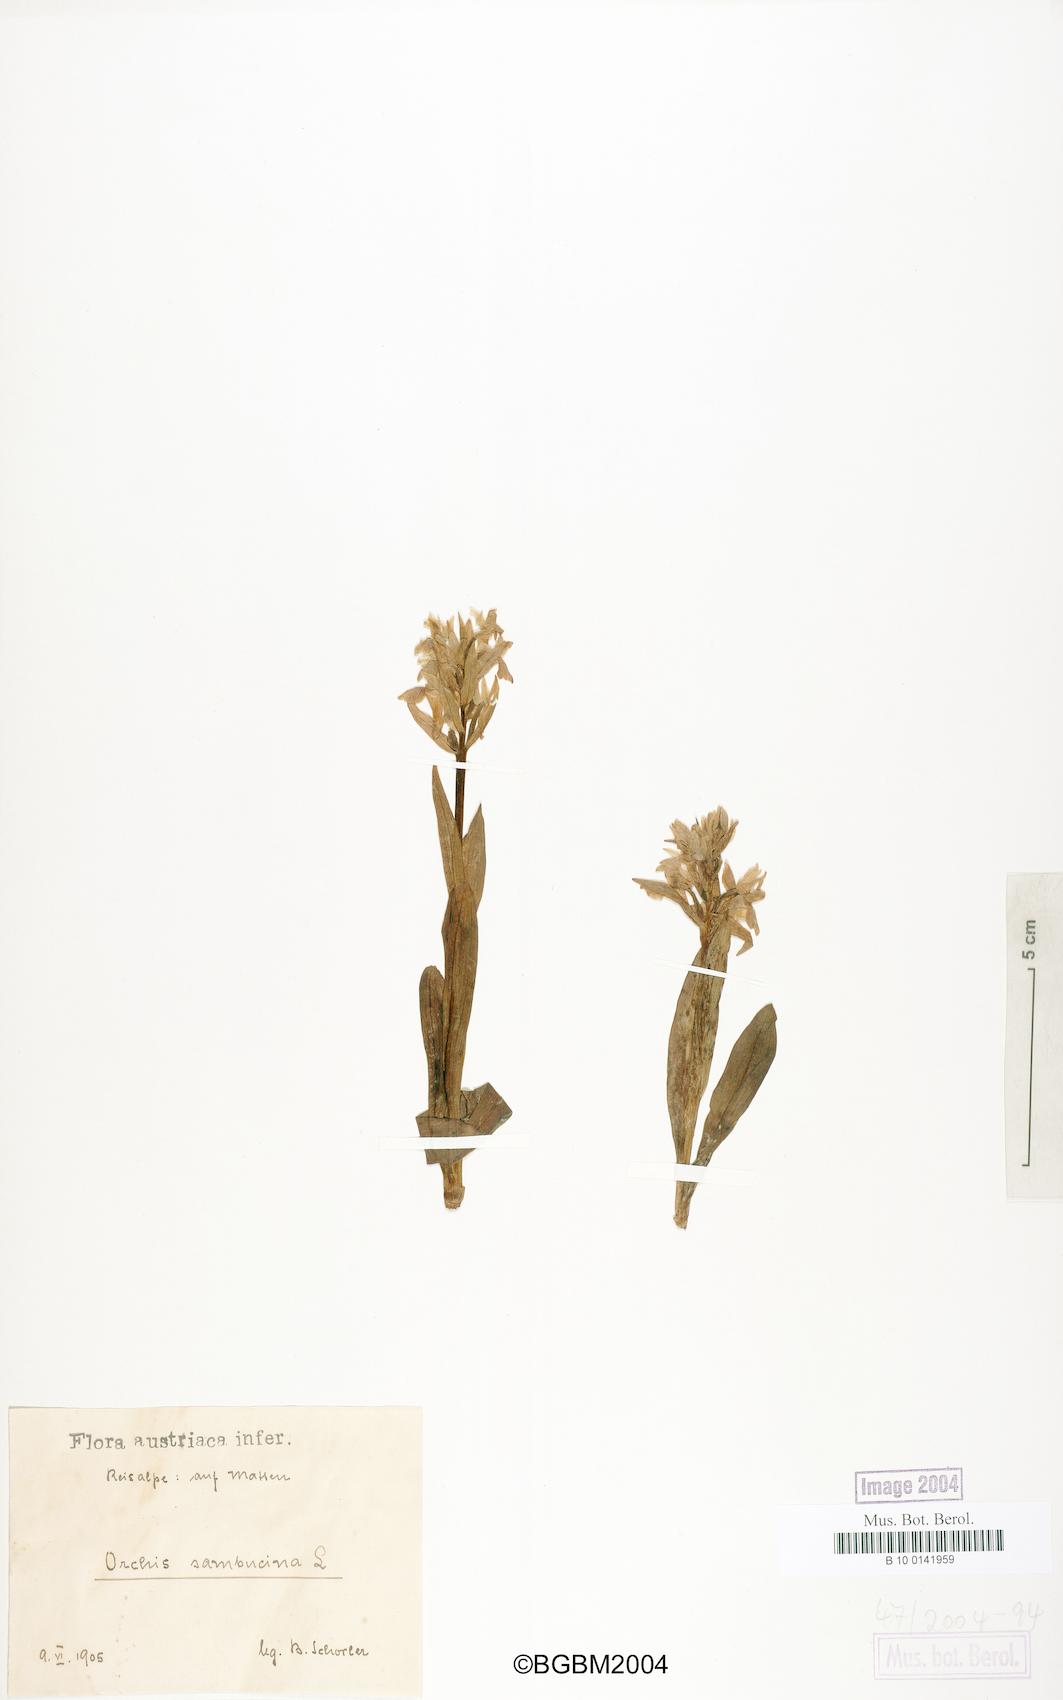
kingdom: Plantae
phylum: Tracheophyta
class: Liliopsida
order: Asparagales
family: Orchidaceae
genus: Dactylorhiza
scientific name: Dactylorhiza sambucina
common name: Elder-flowered orchid
